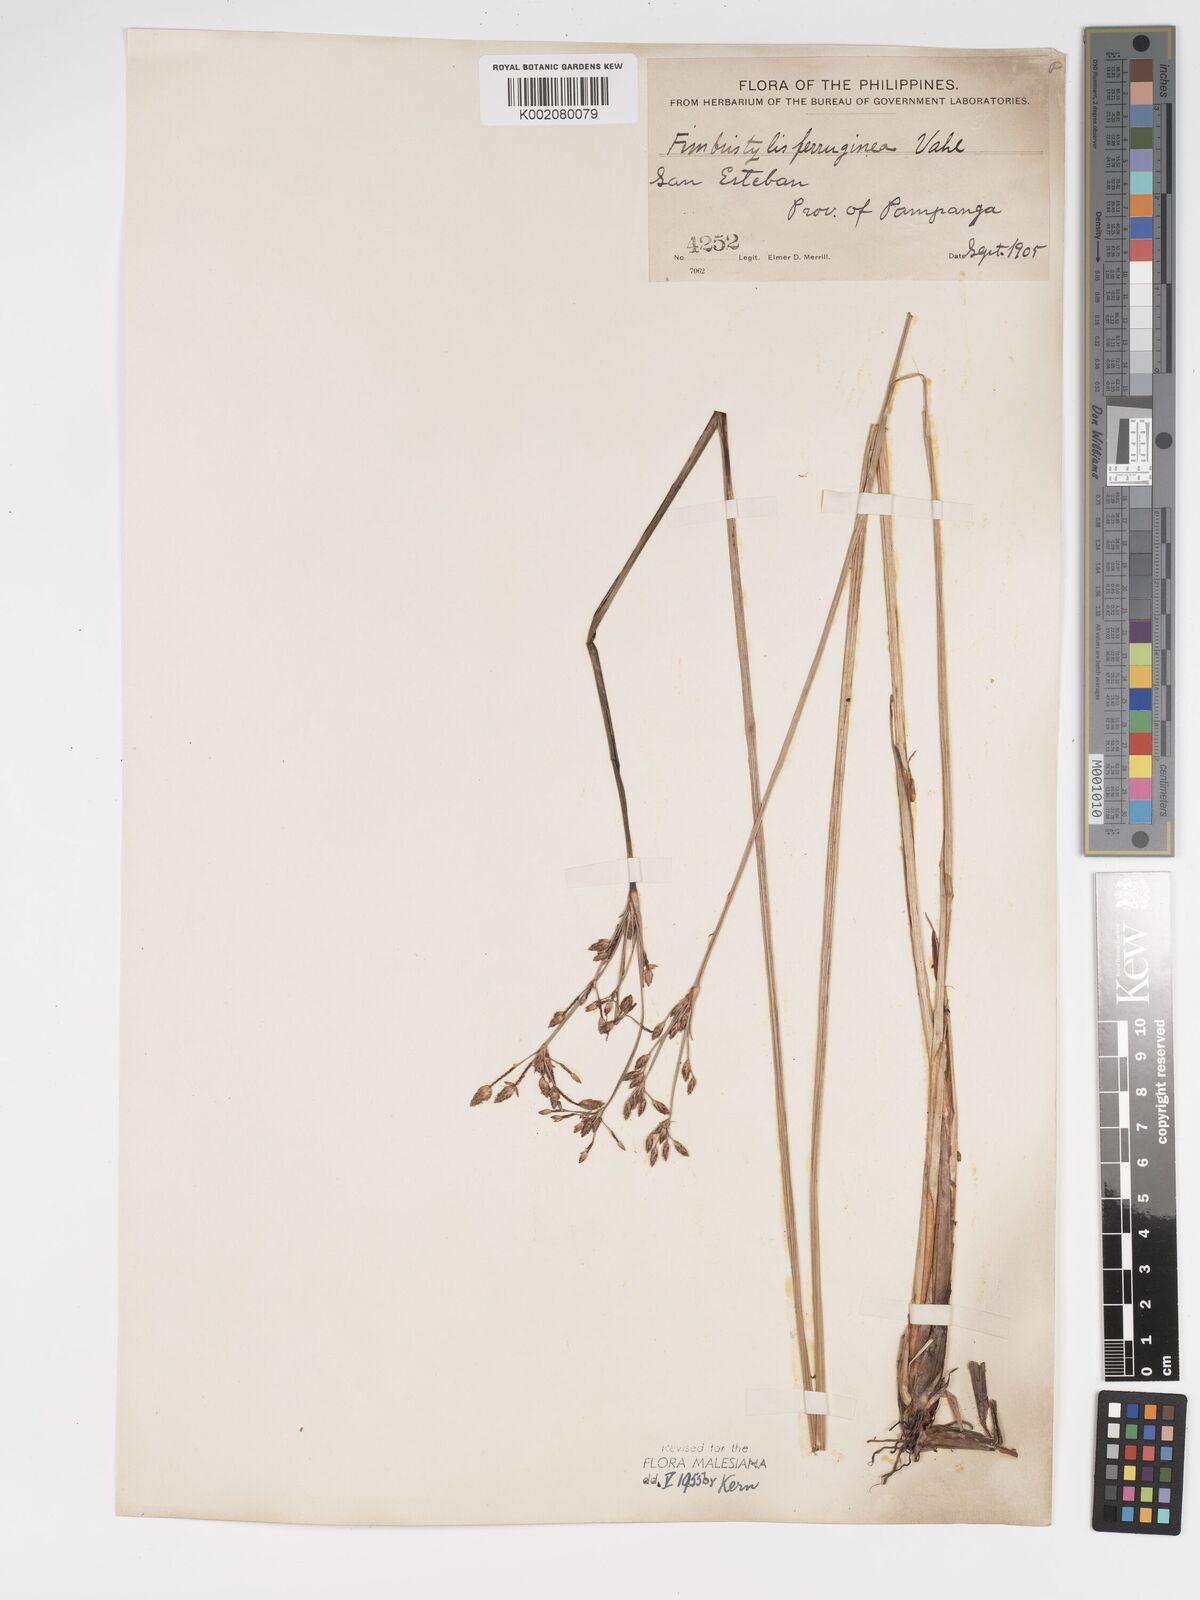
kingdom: Plantae
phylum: Tracheophyta
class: Liliopsida
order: Poales
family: Cyperaceae
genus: Fimbristylis
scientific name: Fimbristylis ferruginea
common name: West indian fimbry
